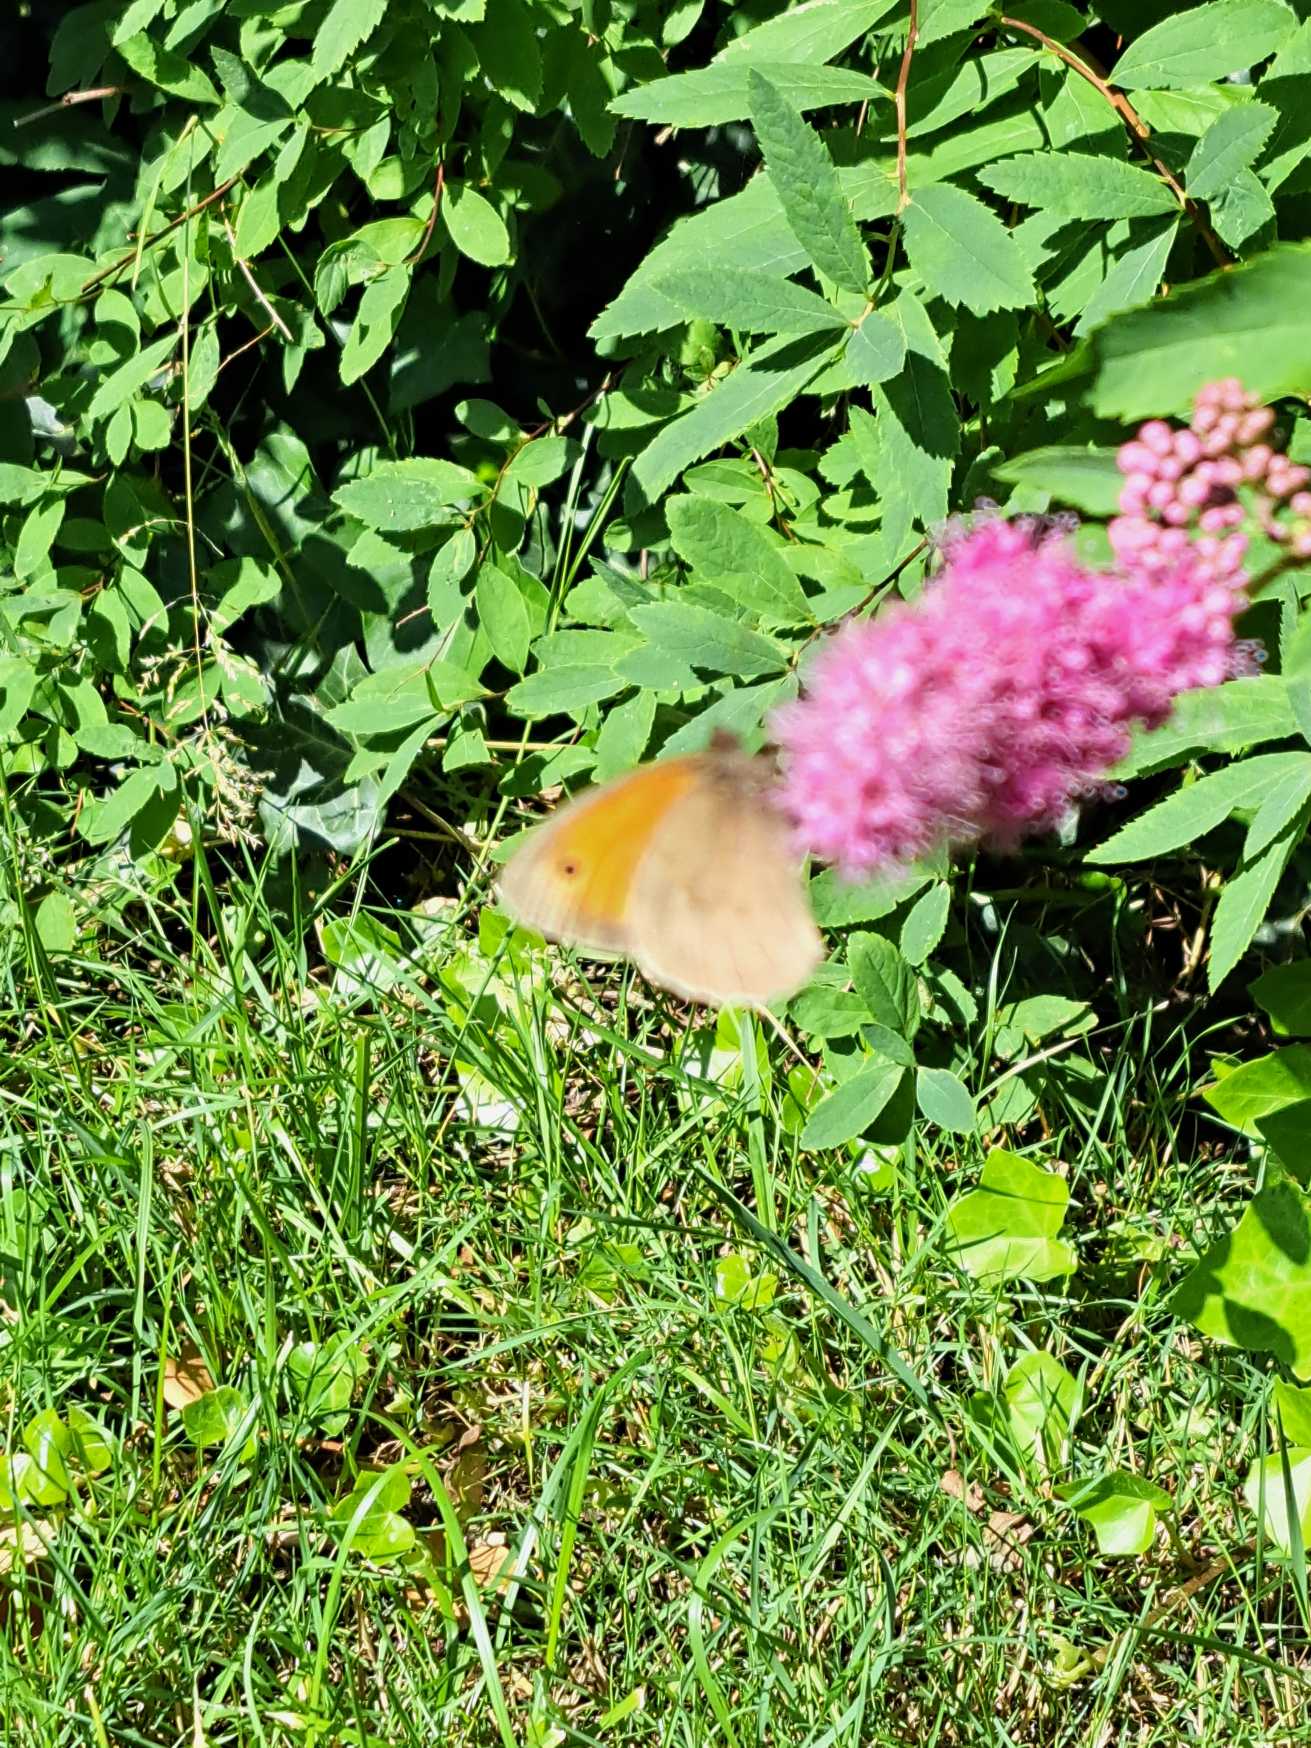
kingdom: Animalia
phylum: Arthropoda
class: Insecta
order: Lepidoptera
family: Nymphalidae
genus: Maniola
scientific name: Maniola jurtina
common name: Græsrandøje
